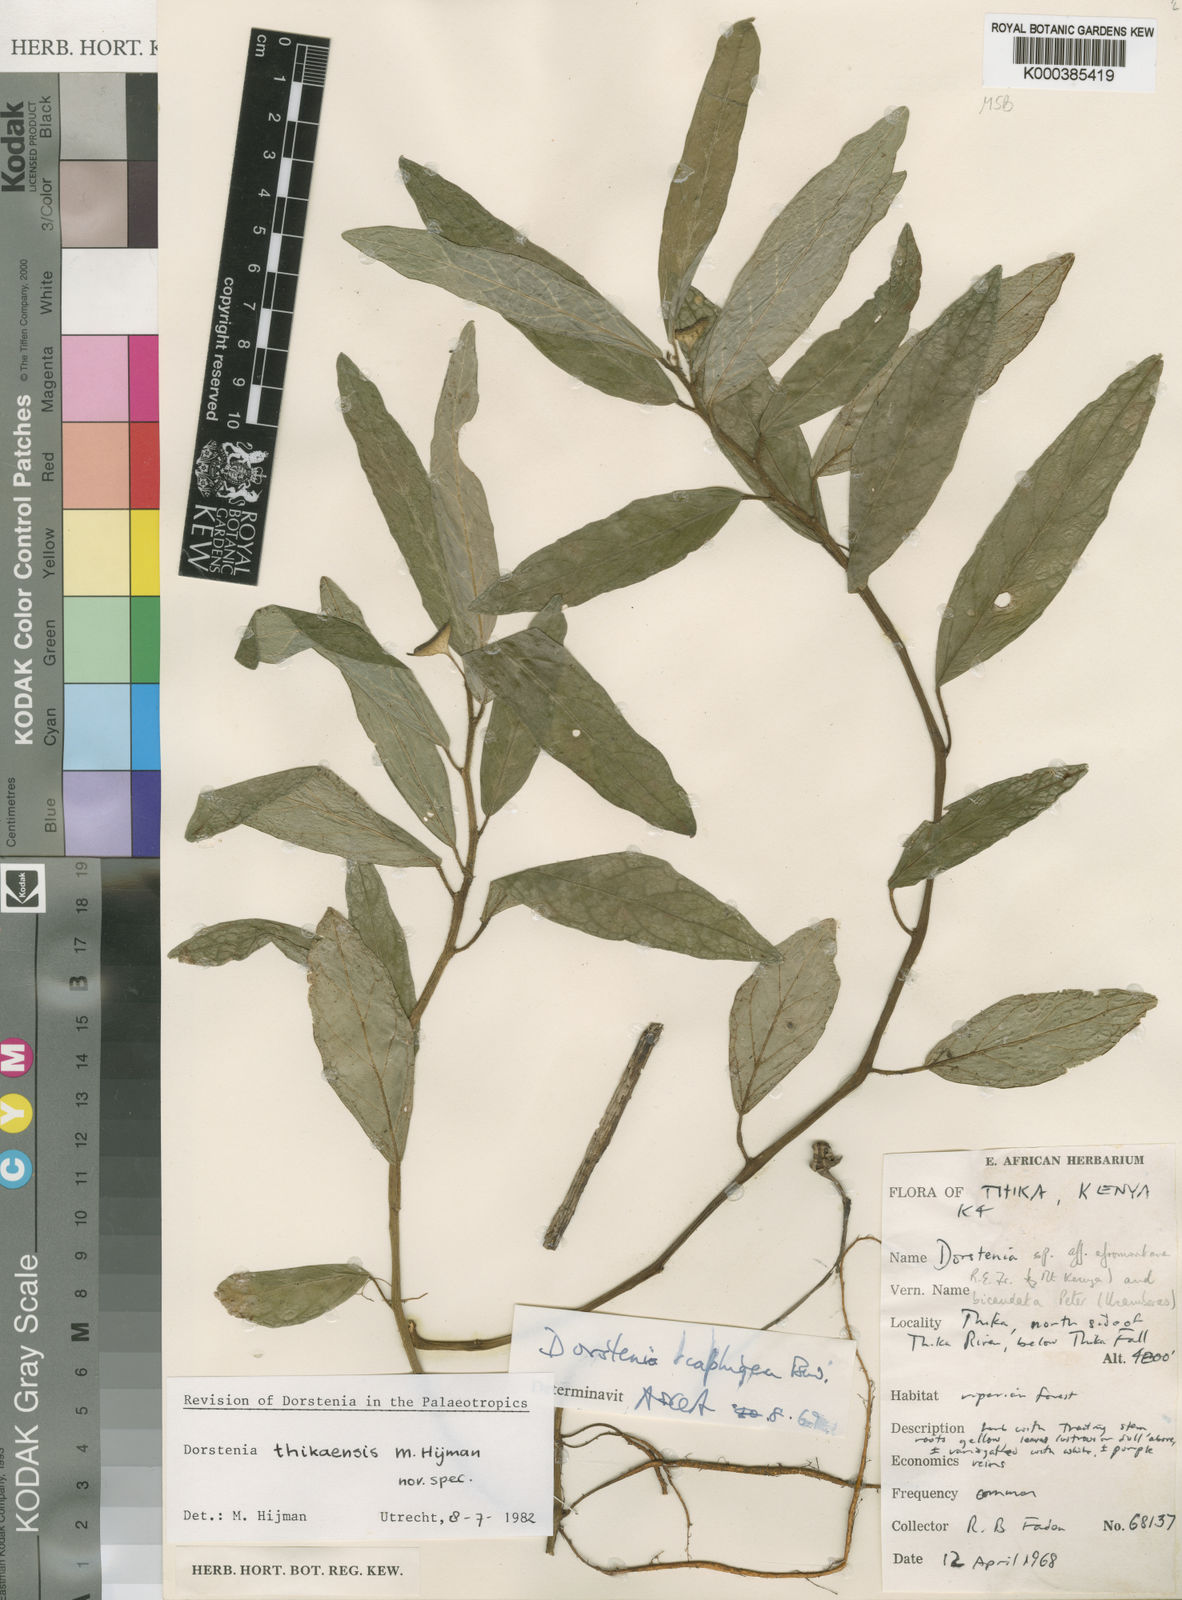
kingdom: Plantae
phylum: Tracheophyta
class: Magnoliopsida
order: Rosales
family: Moraceae
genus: Dorstenia
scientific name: Dorstenia thikaensis
